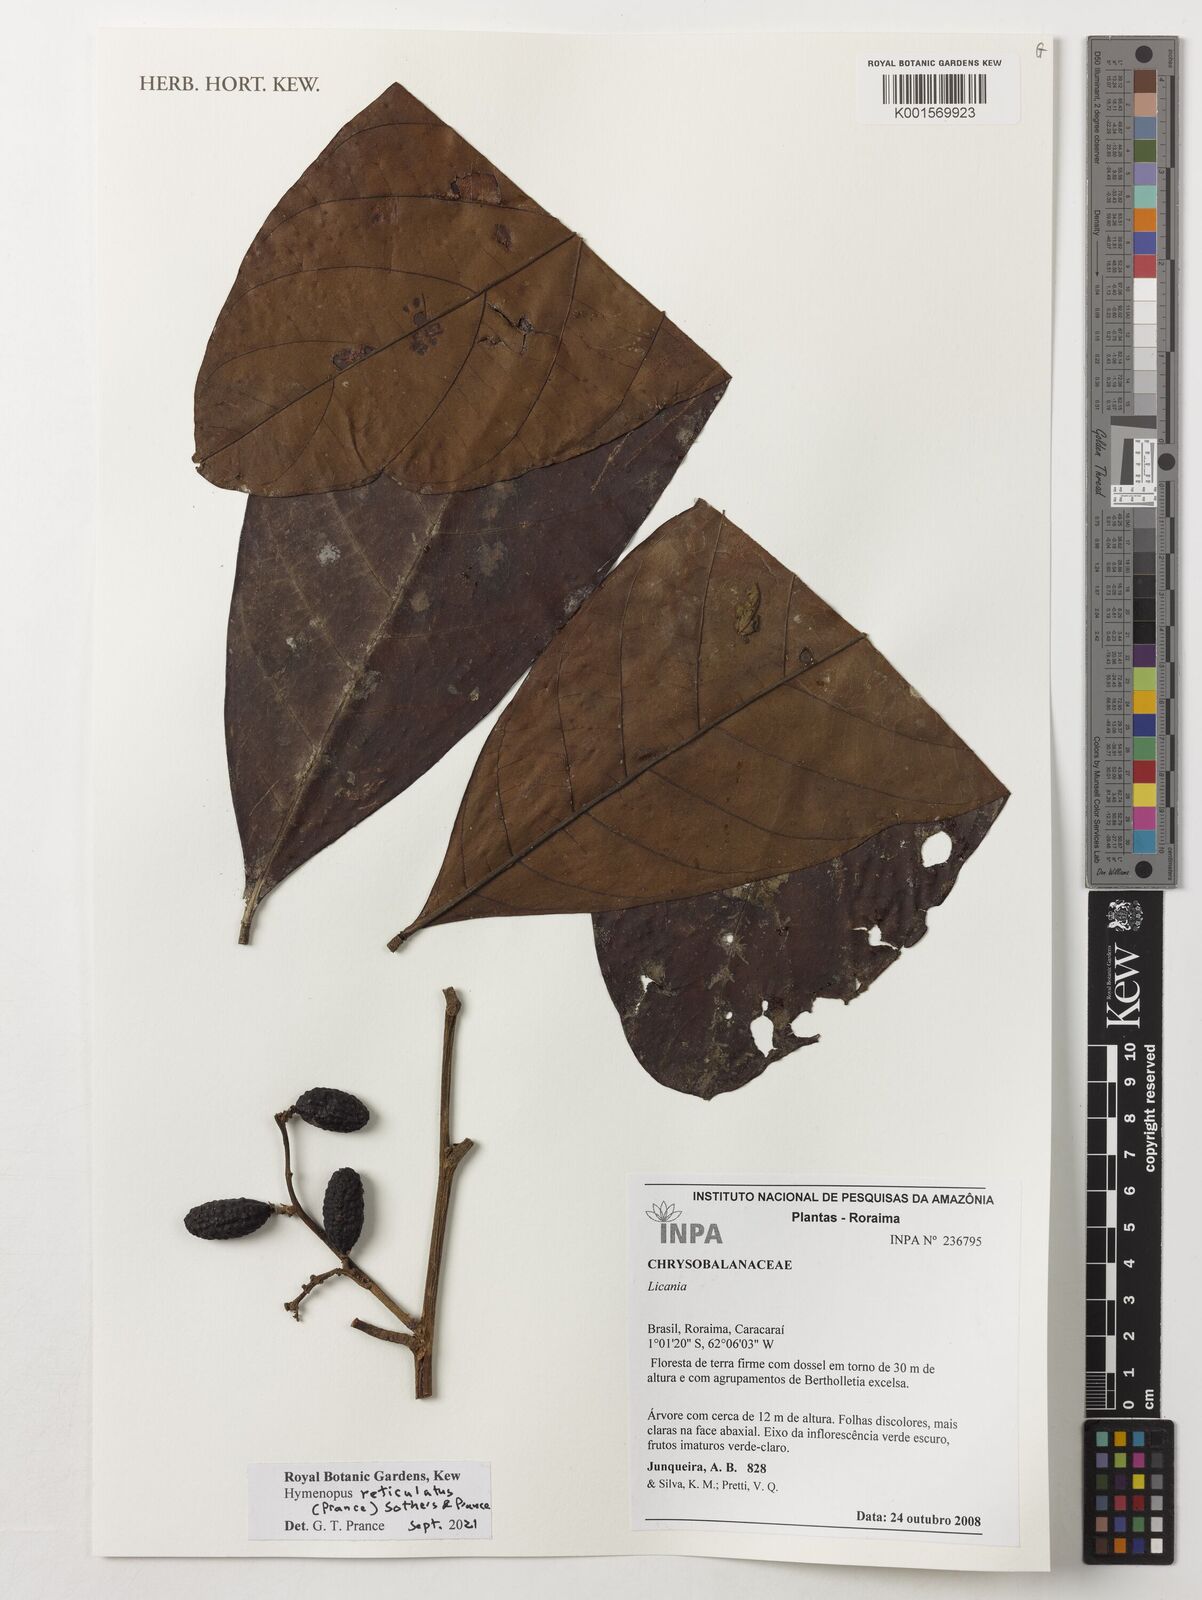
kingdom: Plantae
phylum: Tracheophyta
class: Magnoliopsida
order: Malpighiales
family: Chrysobalanaceae
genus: Hymenopus
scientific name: Hymenopus reticulatus
